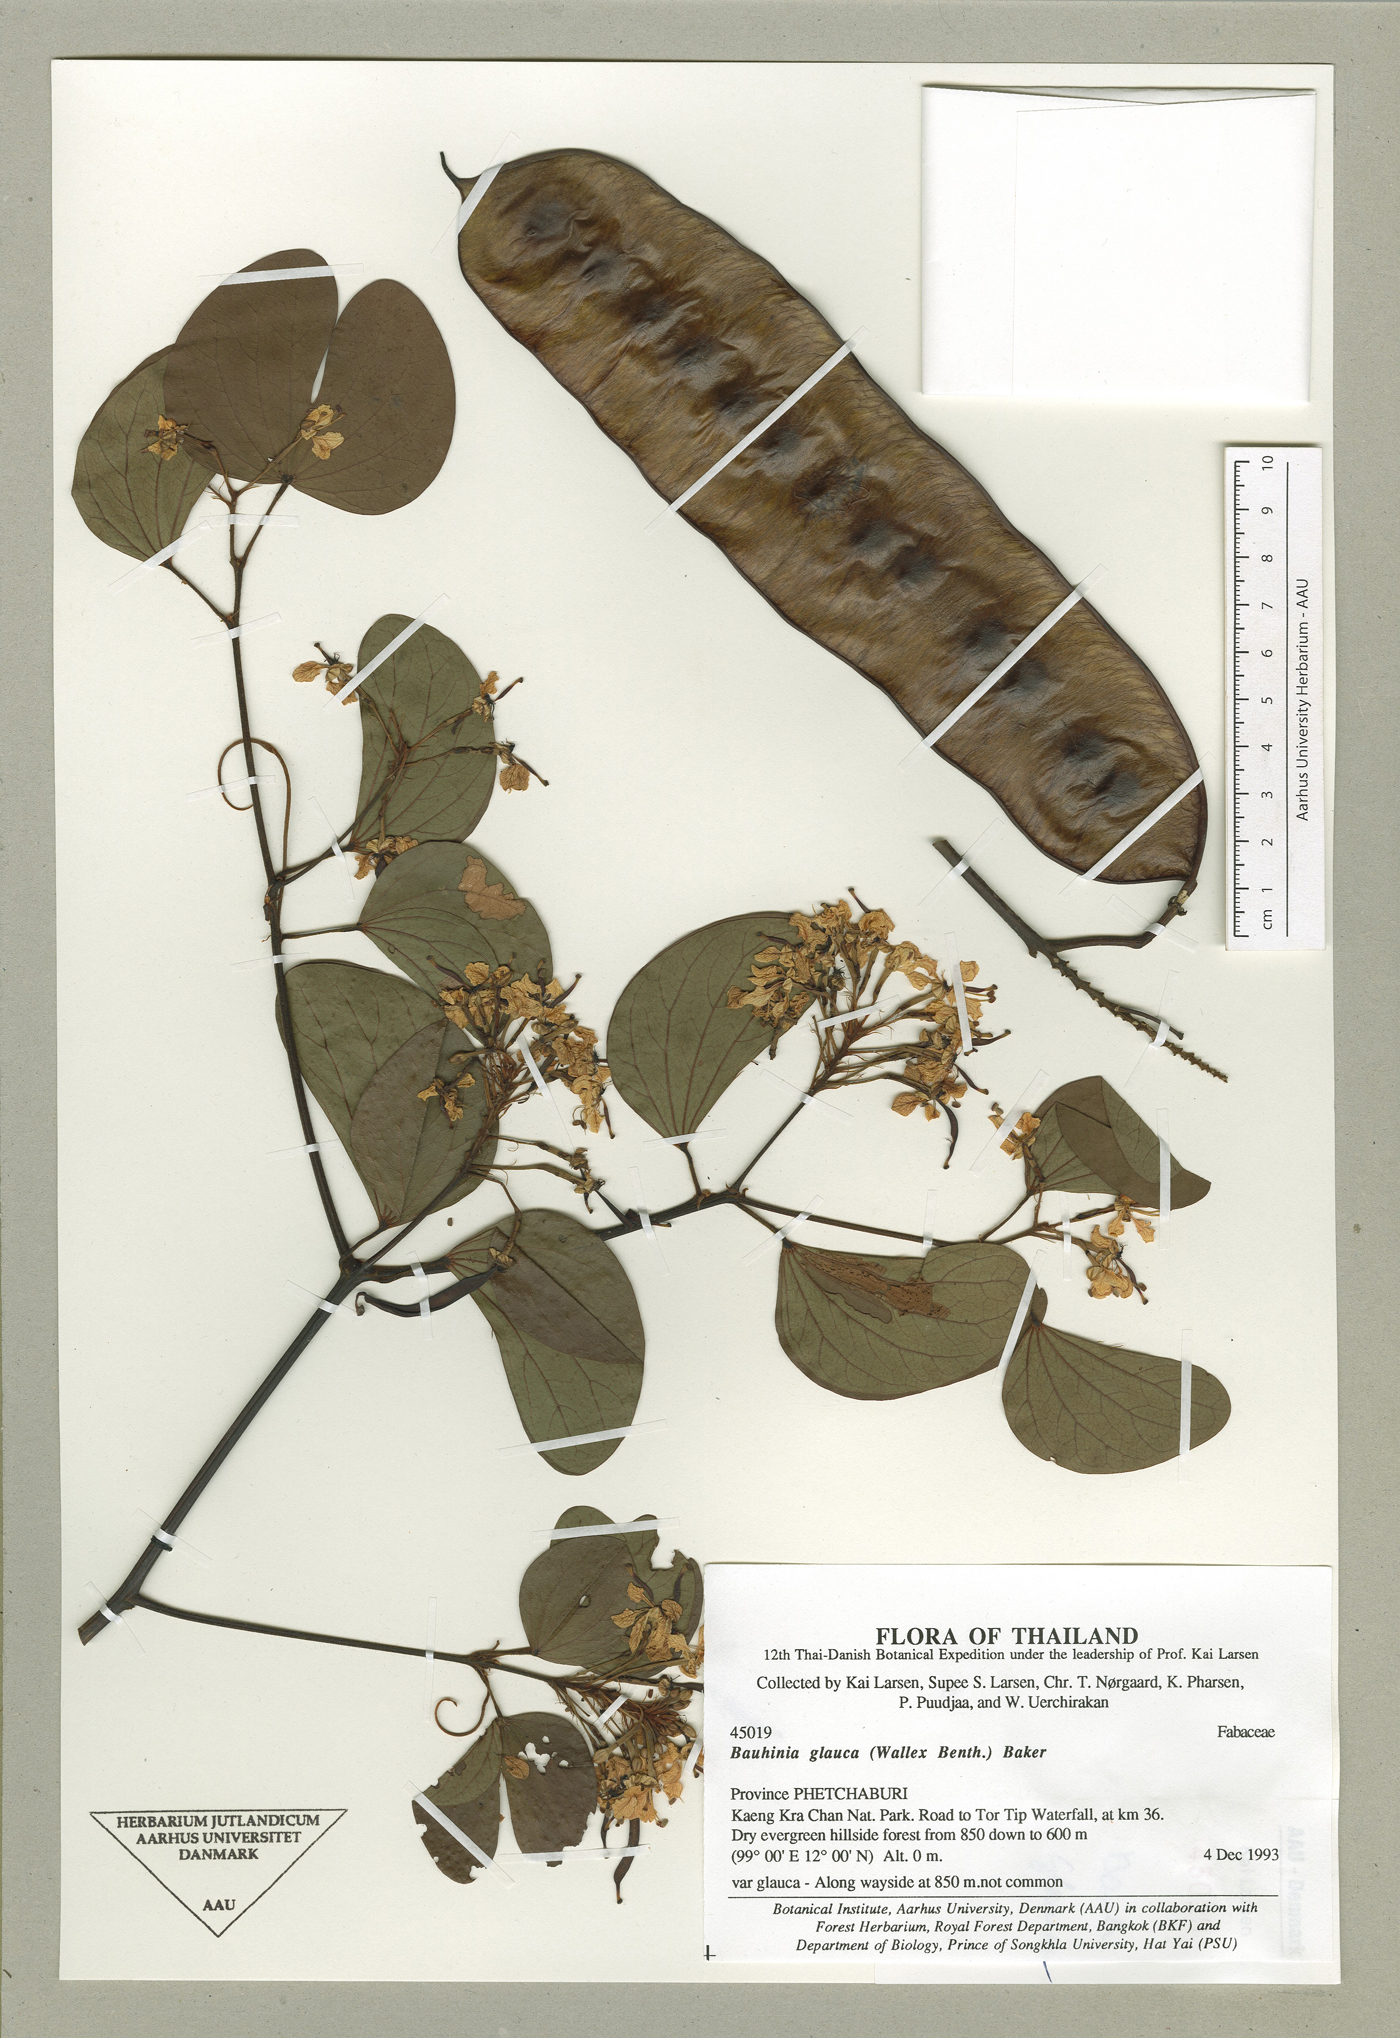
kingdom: Plantae
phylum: Tracheophyta
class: Magnoliopsida
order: Fabales
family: Fabaceae
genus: Bauhinia
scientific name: Bauhinia glauca
